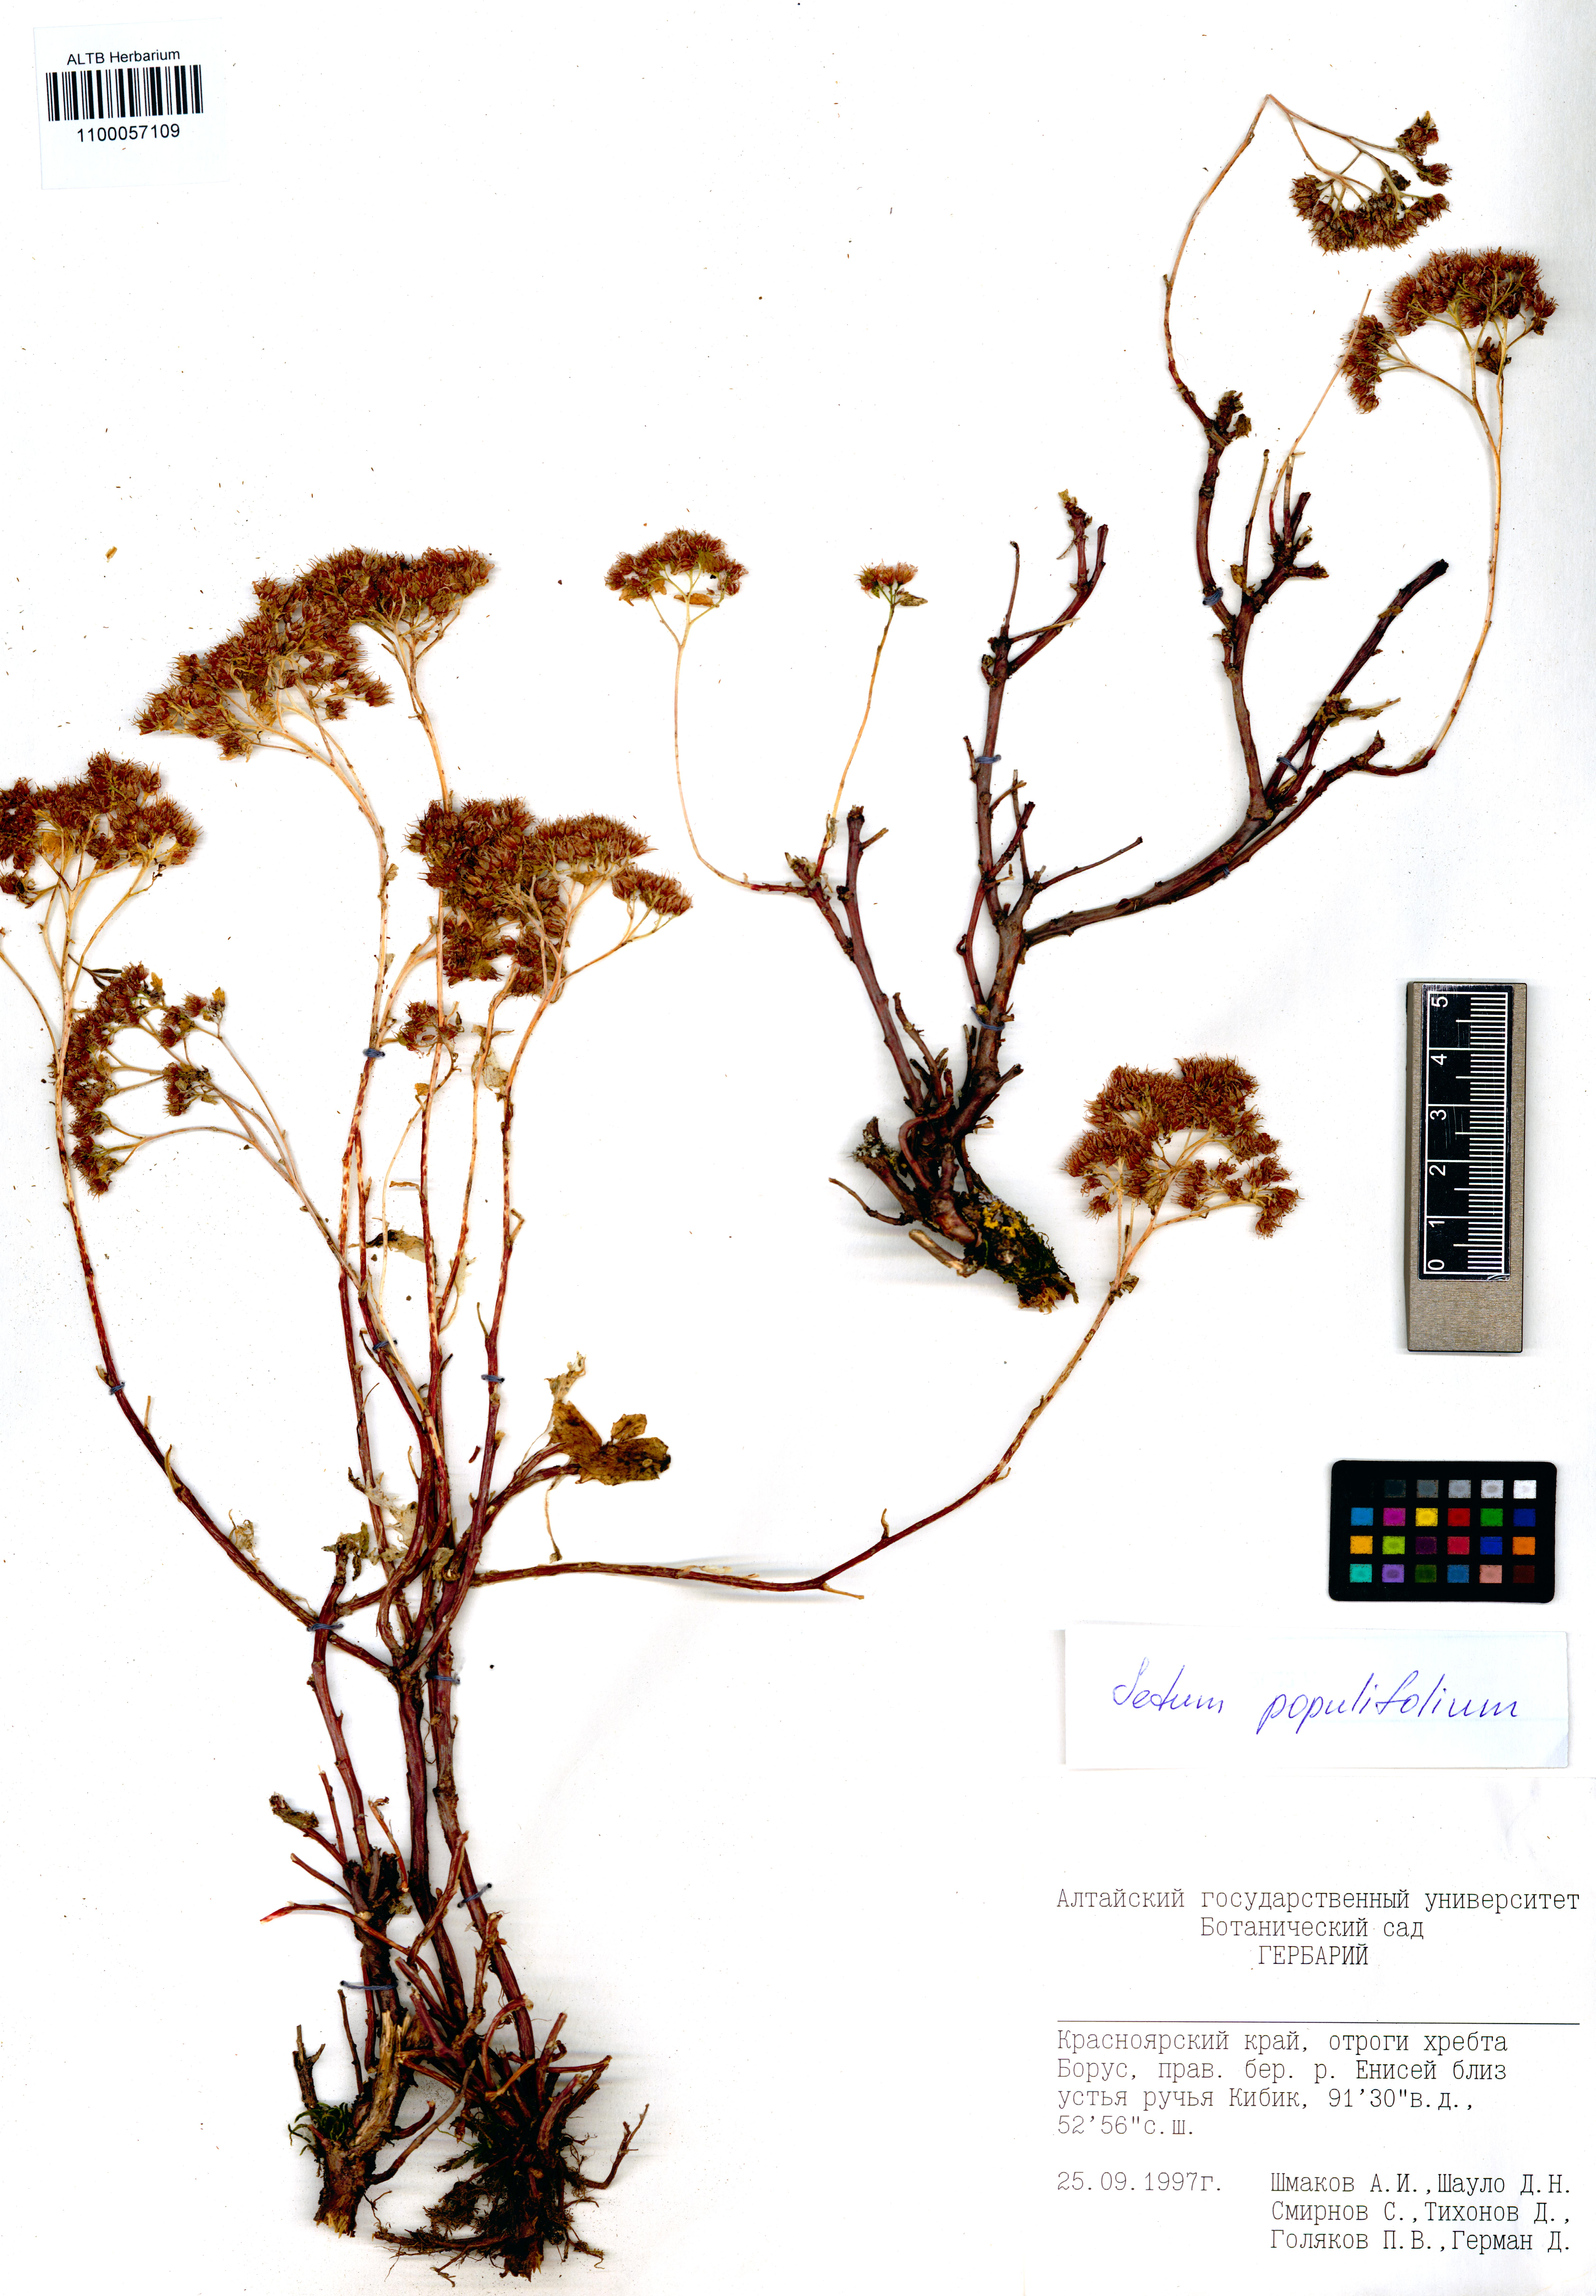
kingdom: Plantae
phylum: Tracheophyta
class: Magnoliopsida
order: Saxifragales
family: Crassulaceae
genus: Hylotelephium
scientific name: Hylotelephium populifolium
